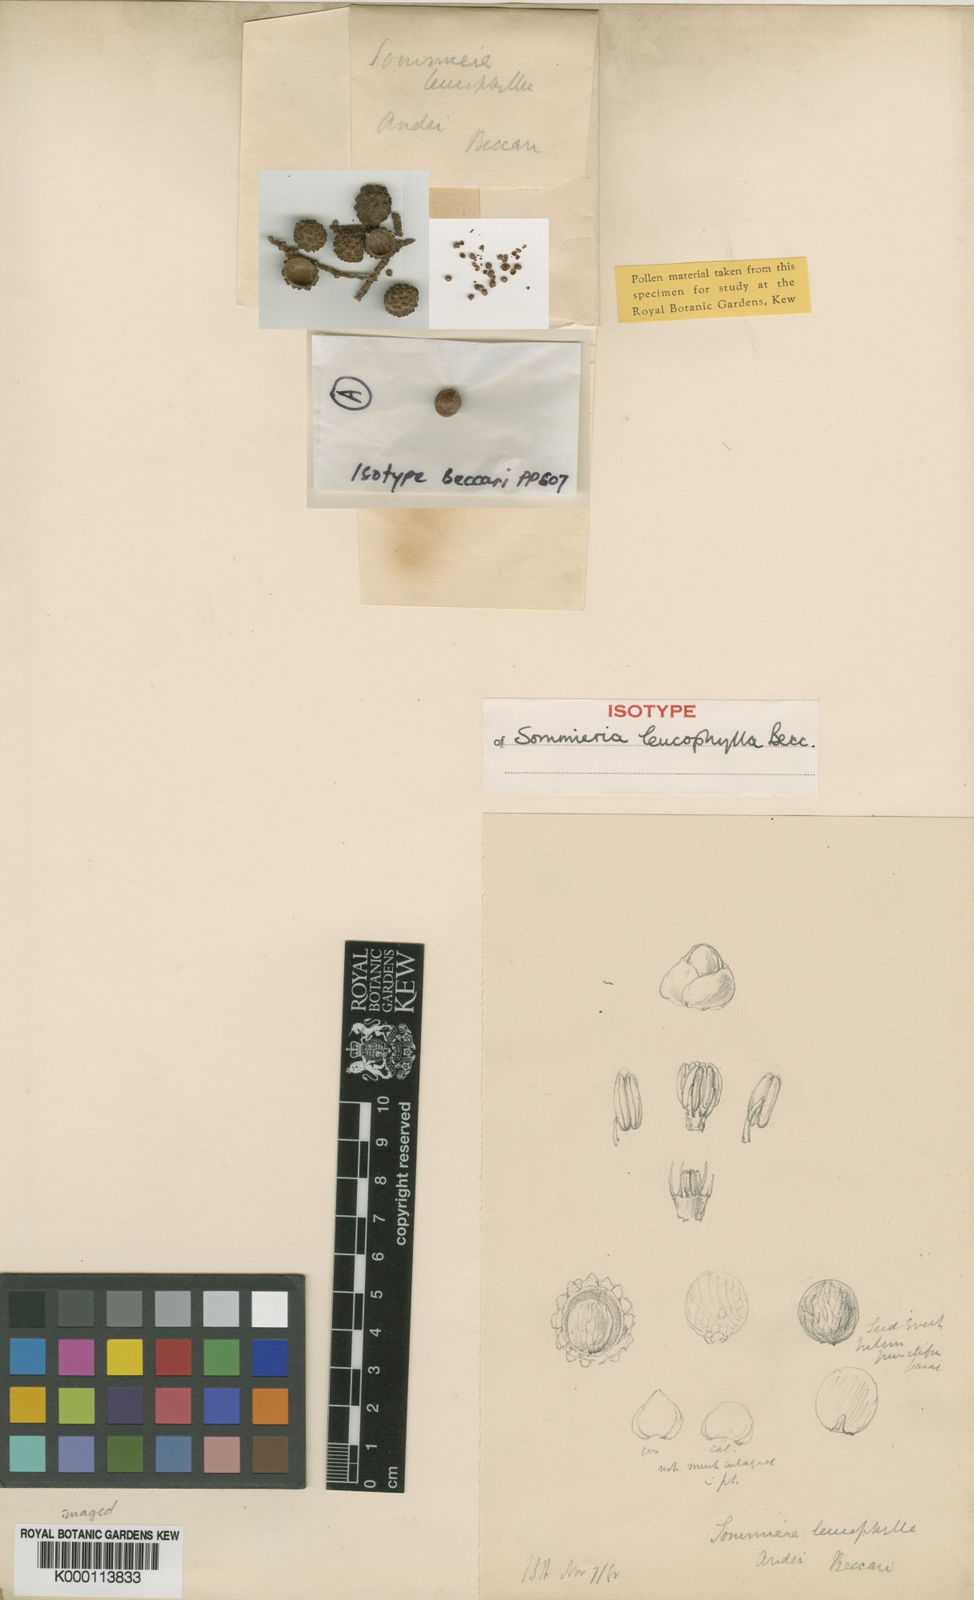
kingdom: Plantae
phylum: Tracheophyta
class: Liliopsida
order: Arecales
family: Arecaceae
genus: Sommieria
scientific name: Sommieria leucophylla
